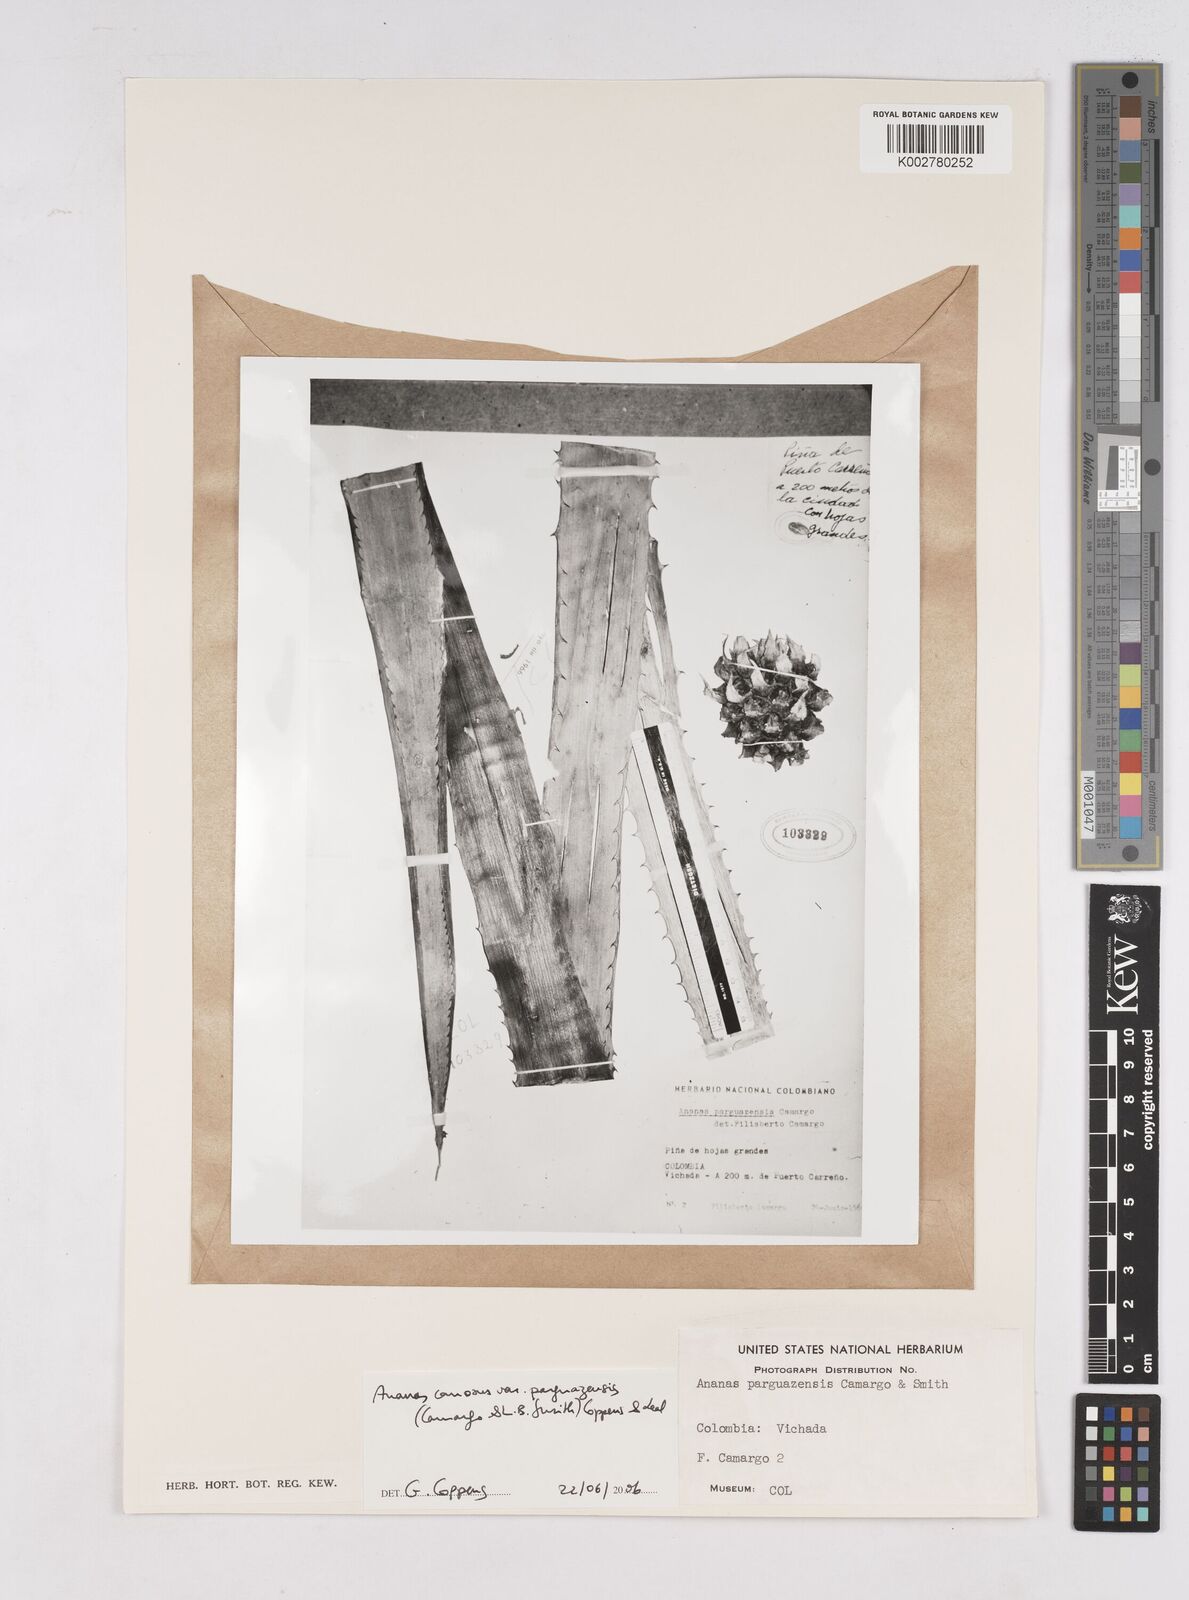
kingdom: Plantae
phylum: Tracheophyta
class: Liliopsida
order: Poales
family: Bromeliaceae
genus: Ananas
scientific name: Ananas comosus
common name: Pineapple
